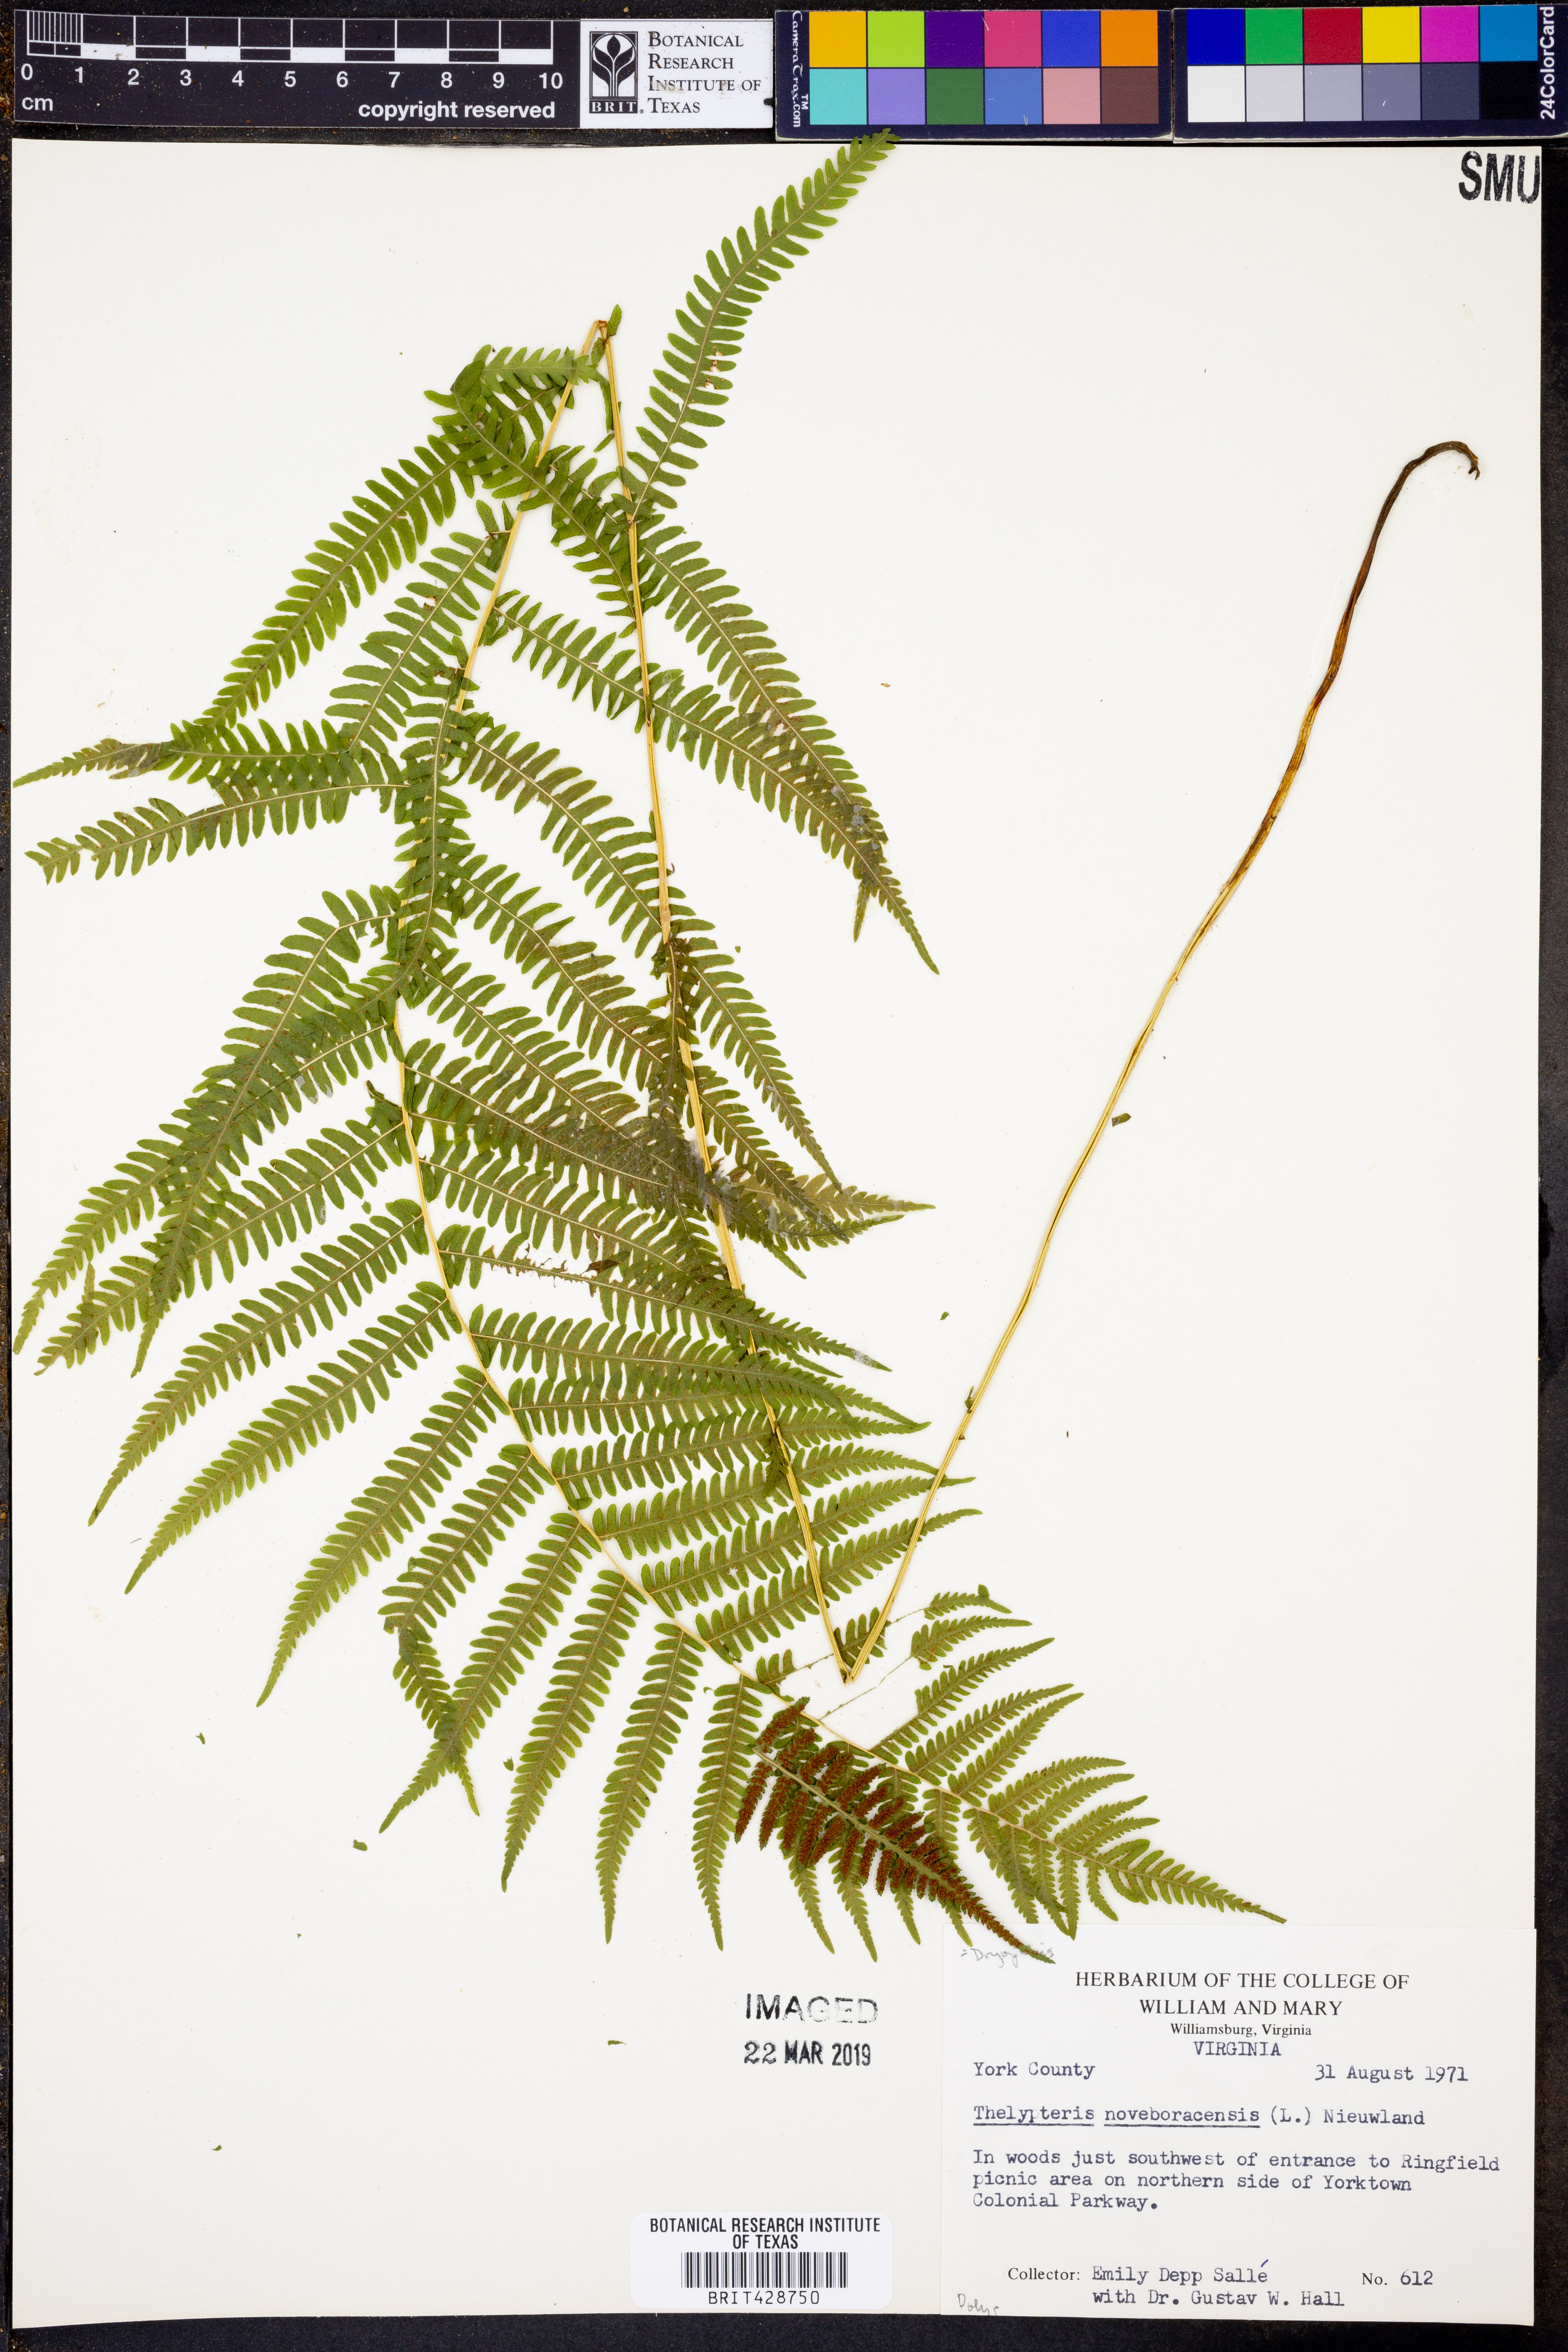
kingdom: Plantae
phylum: Tracheophyta
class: Polypodiopsida
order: Polypodiales
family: Thelypteridaceae
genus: Amauropelta
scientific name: Amauropelta noveboracensis
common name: New york fern
